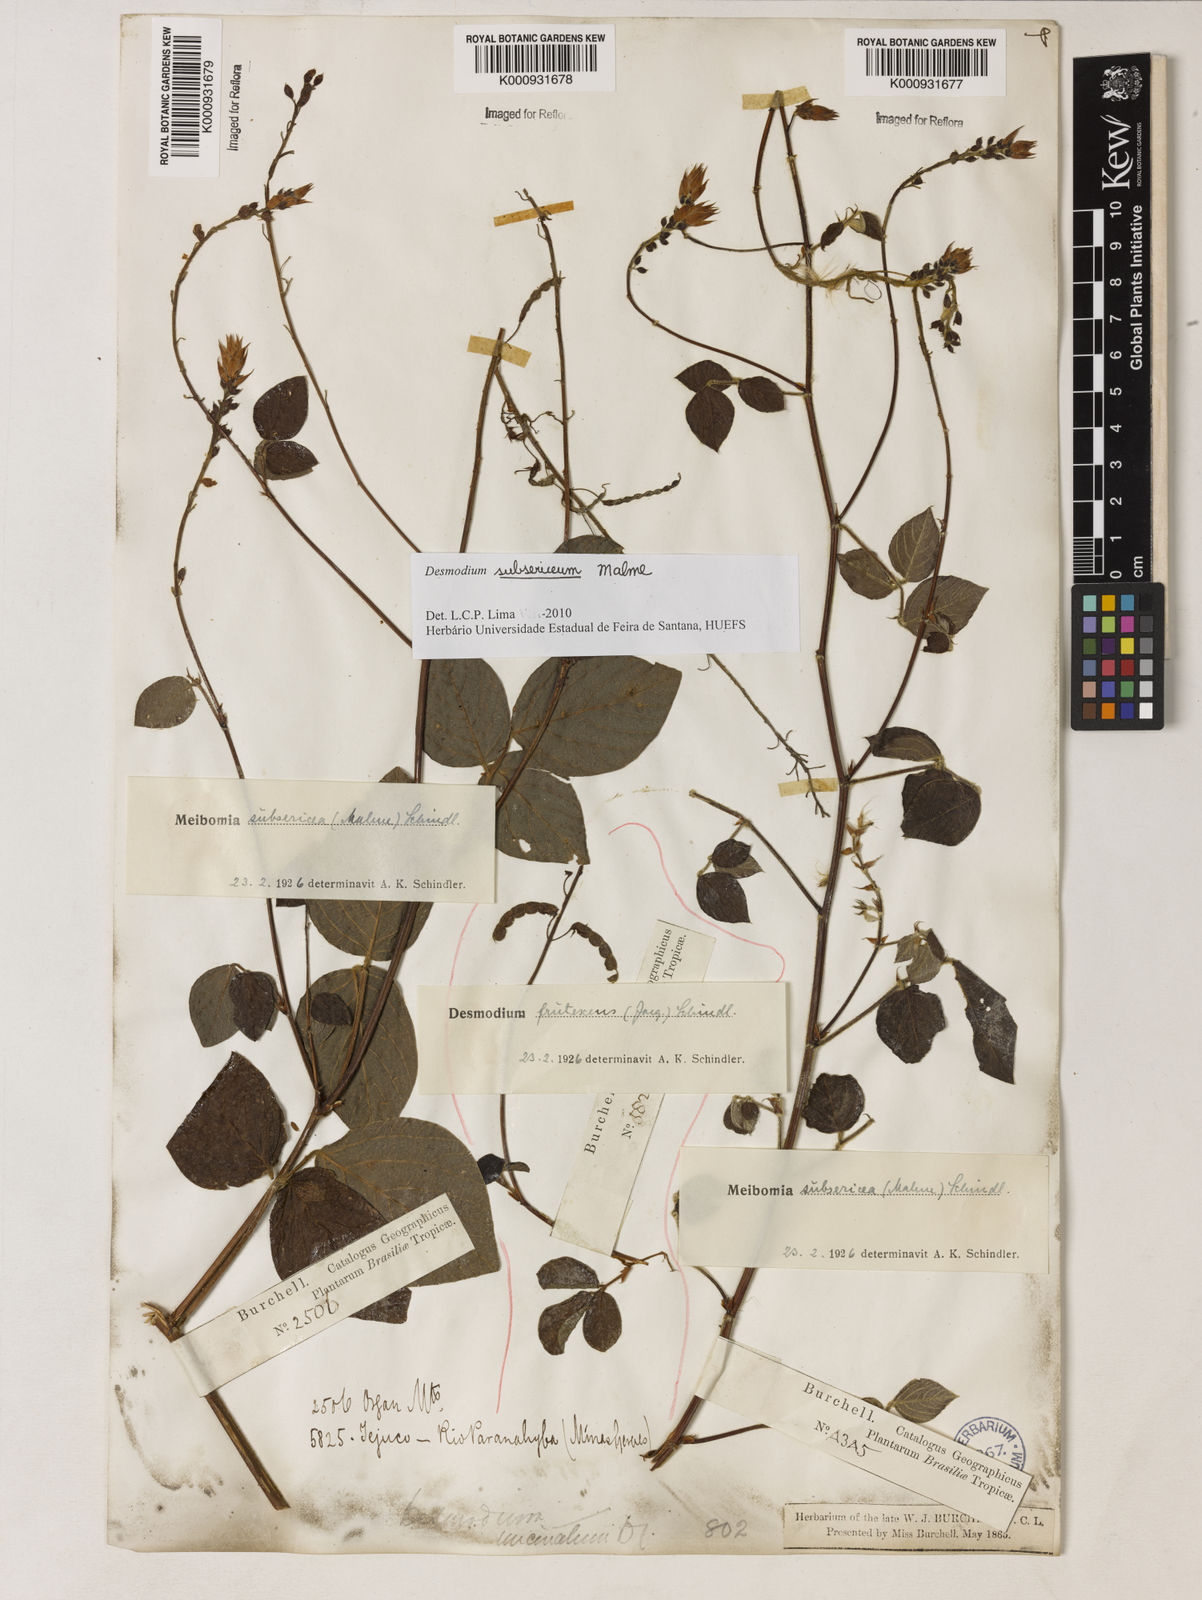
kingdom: Plantae
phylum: Tracheophyta
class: Magnoliopsida
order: Fabales
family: Fabaceae
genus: Desmodium
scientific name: Desmodium subsericeum
